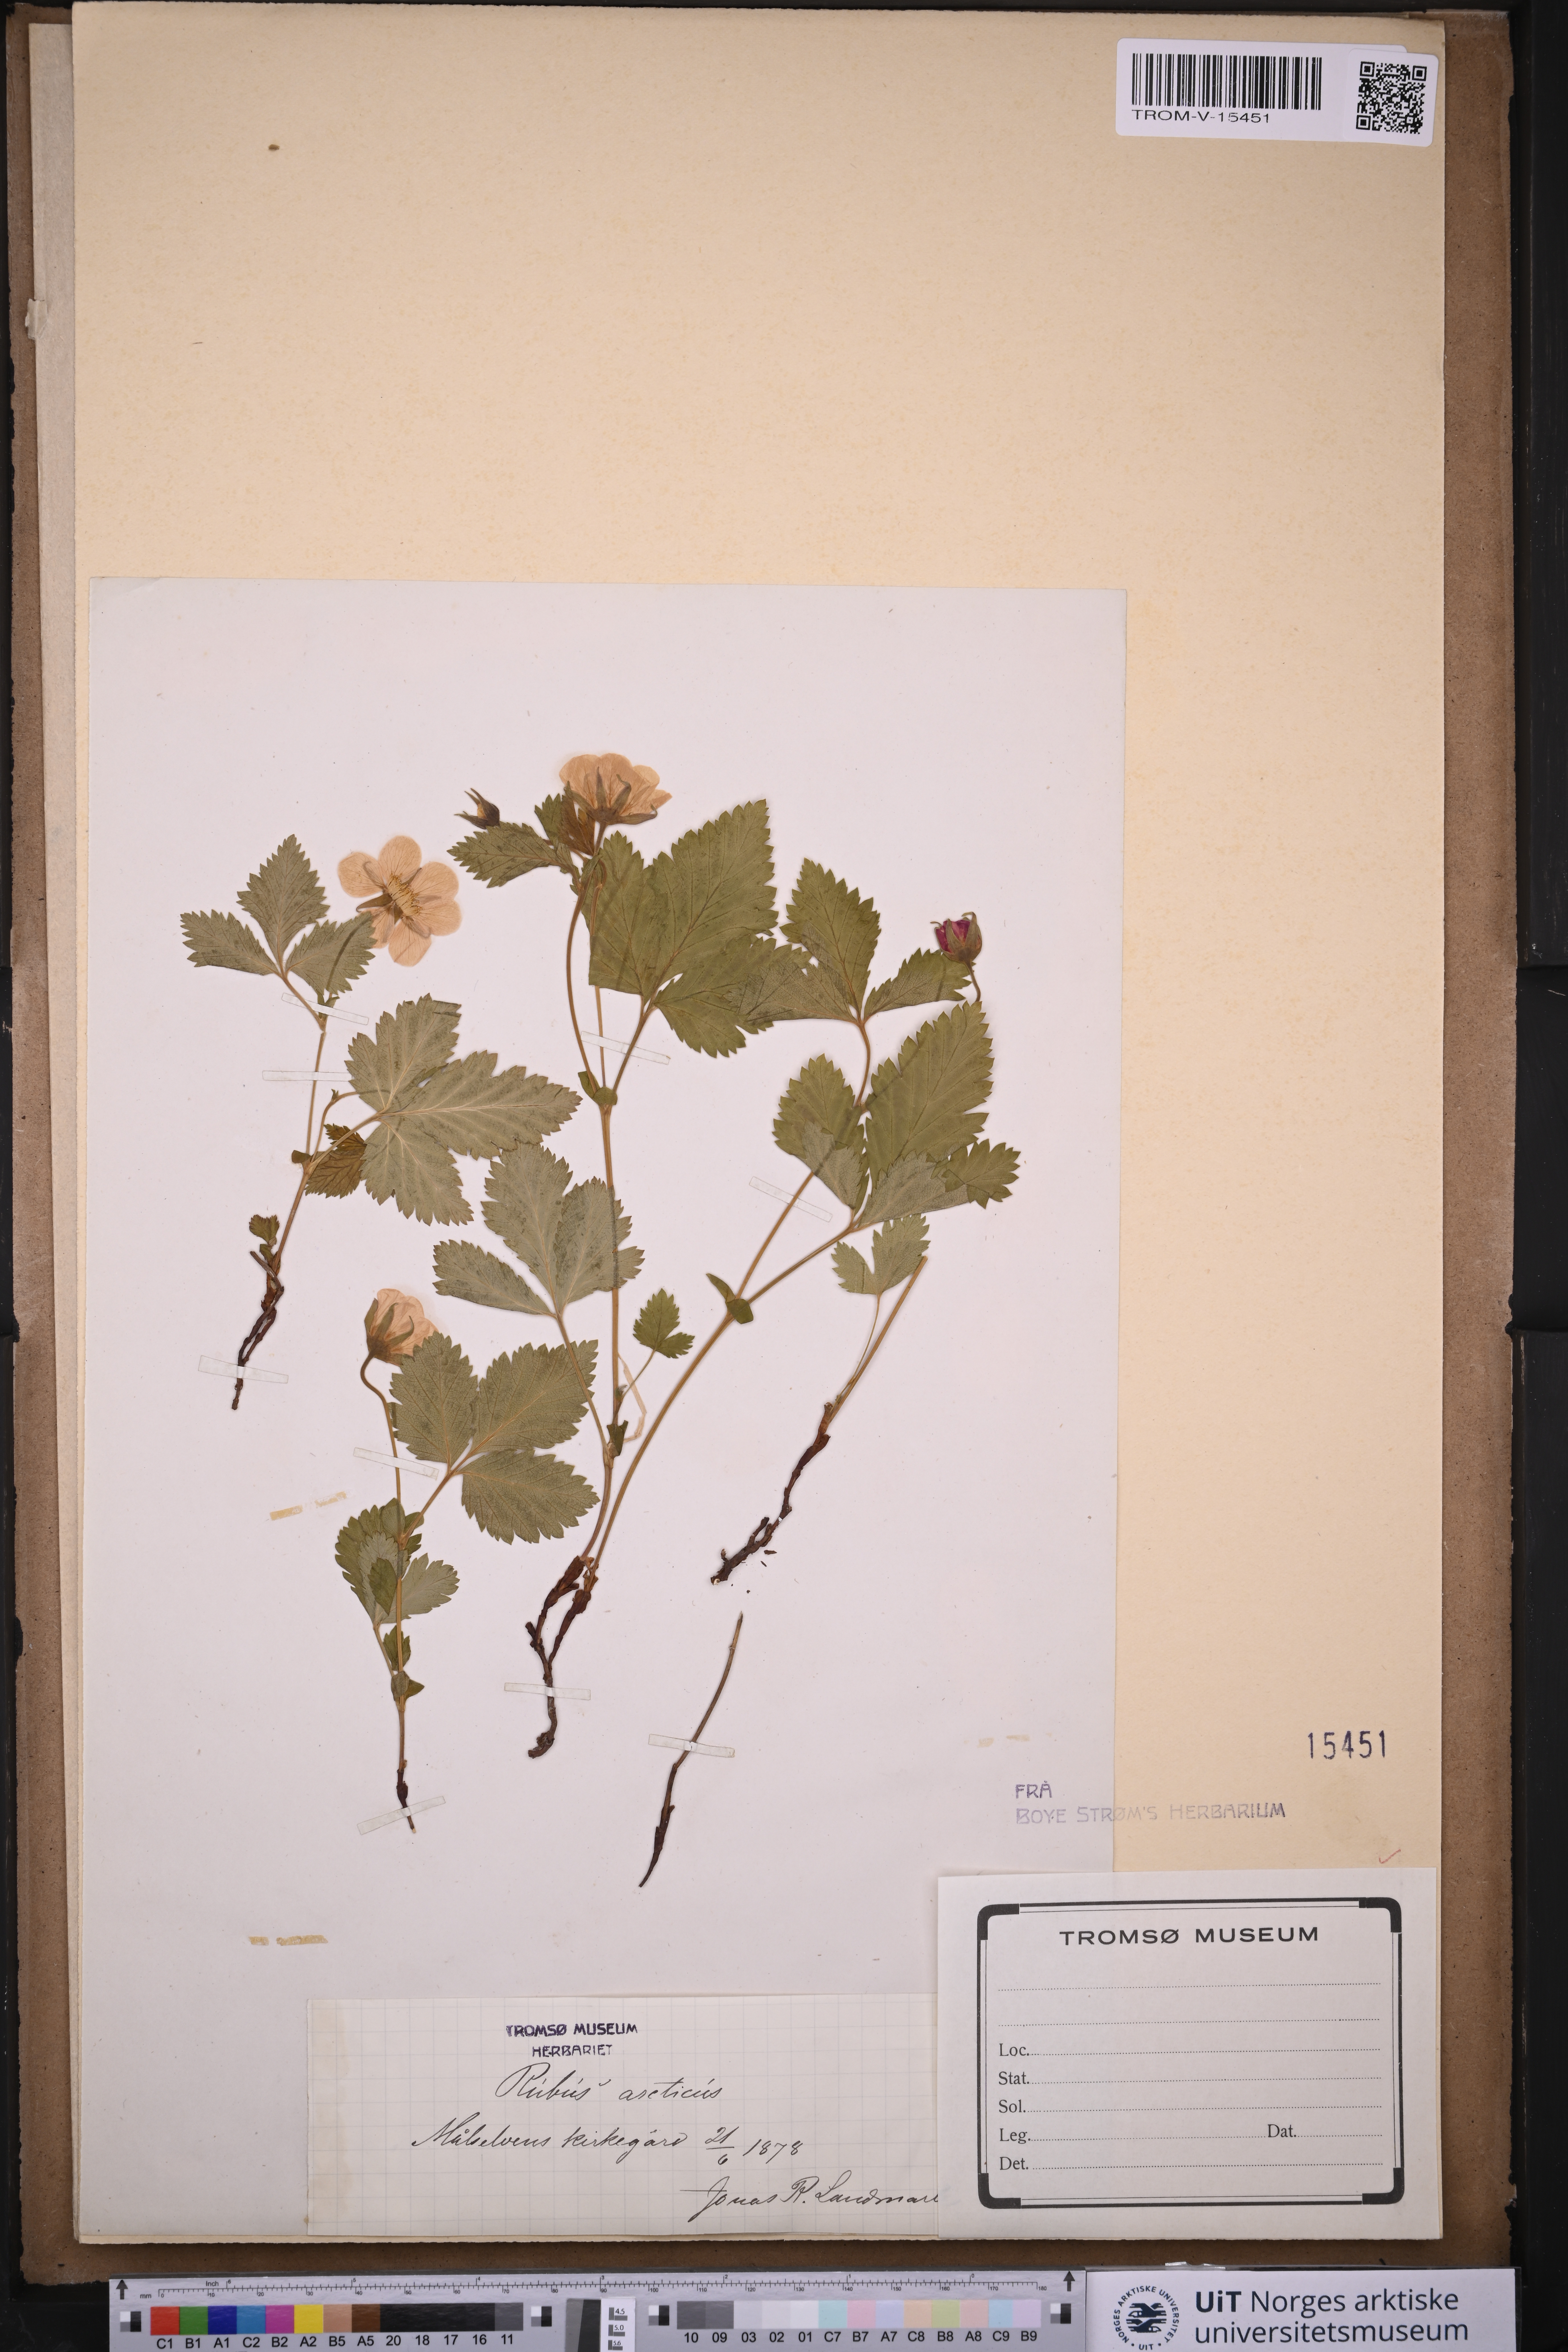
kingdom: Plantae
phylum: Tracheophyta
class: Magnoliopsida
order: Rosales
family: Rosaceae
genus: Rubus
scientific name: Rubus arcticus
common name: Arctic bramble
